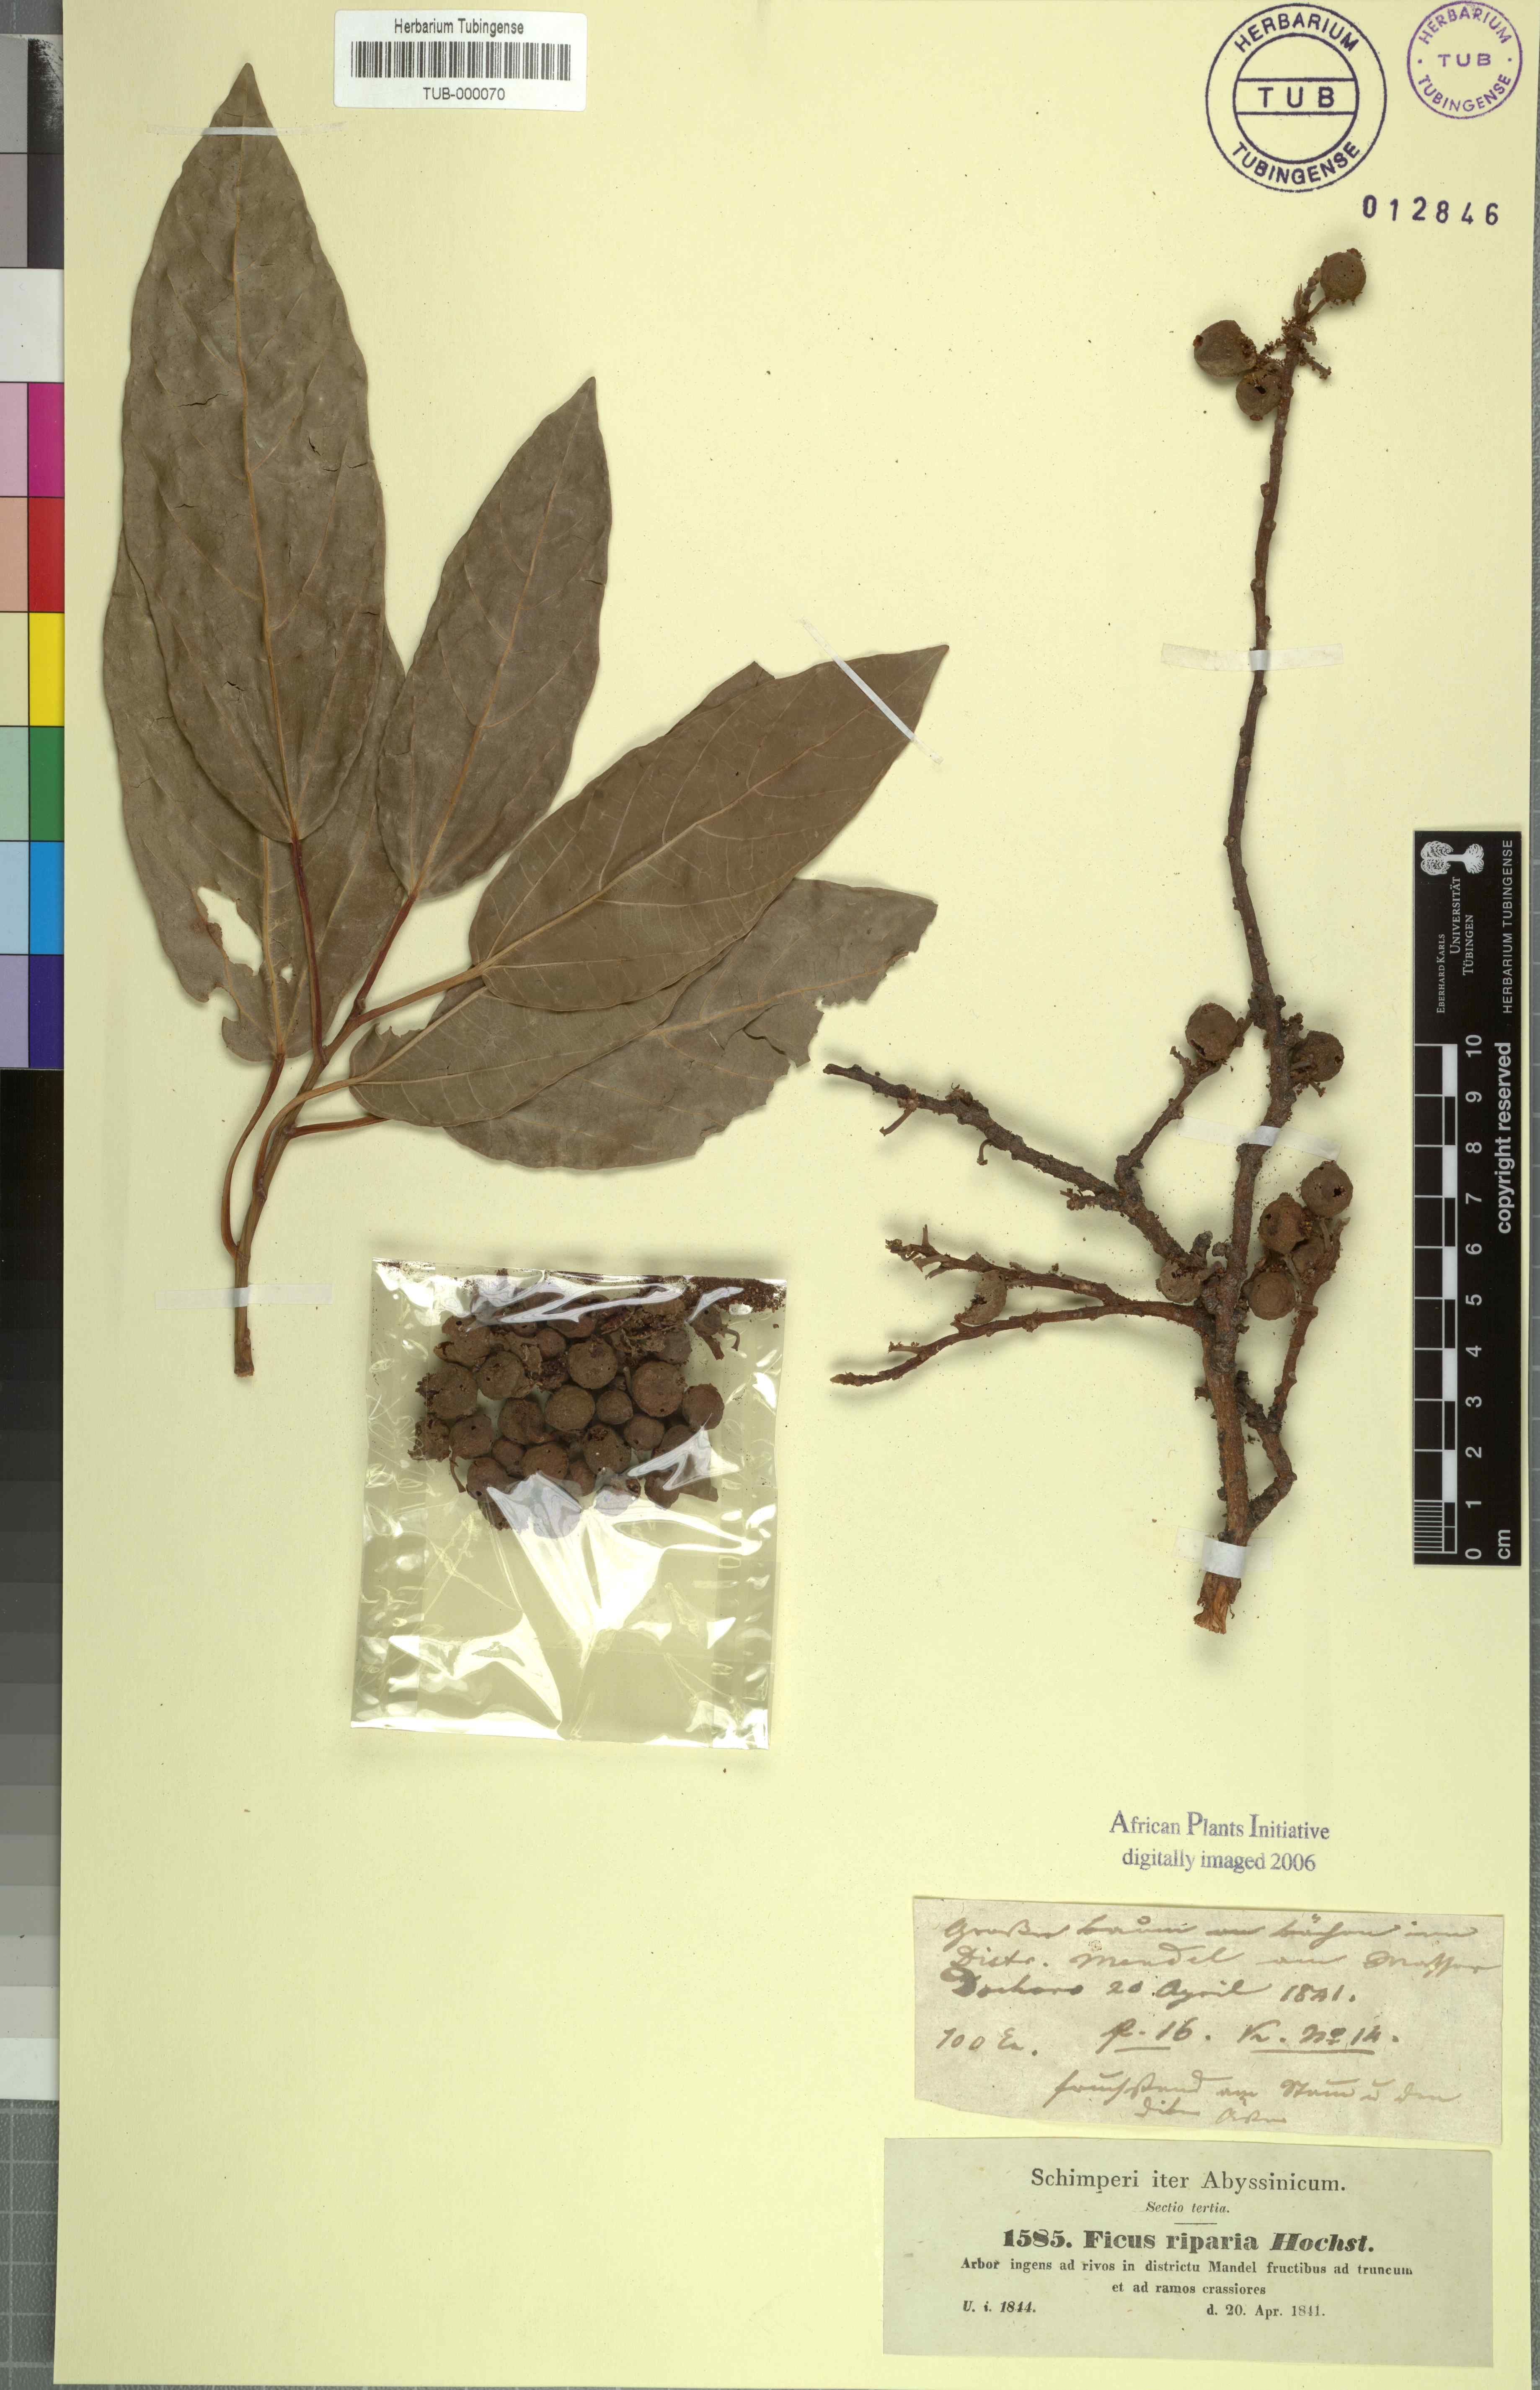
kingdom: Plantae
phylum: Tracheophyta
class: Magnoliopsida
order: Rosales
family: Moraceae
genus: Ficus
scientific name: Ficus riparia
